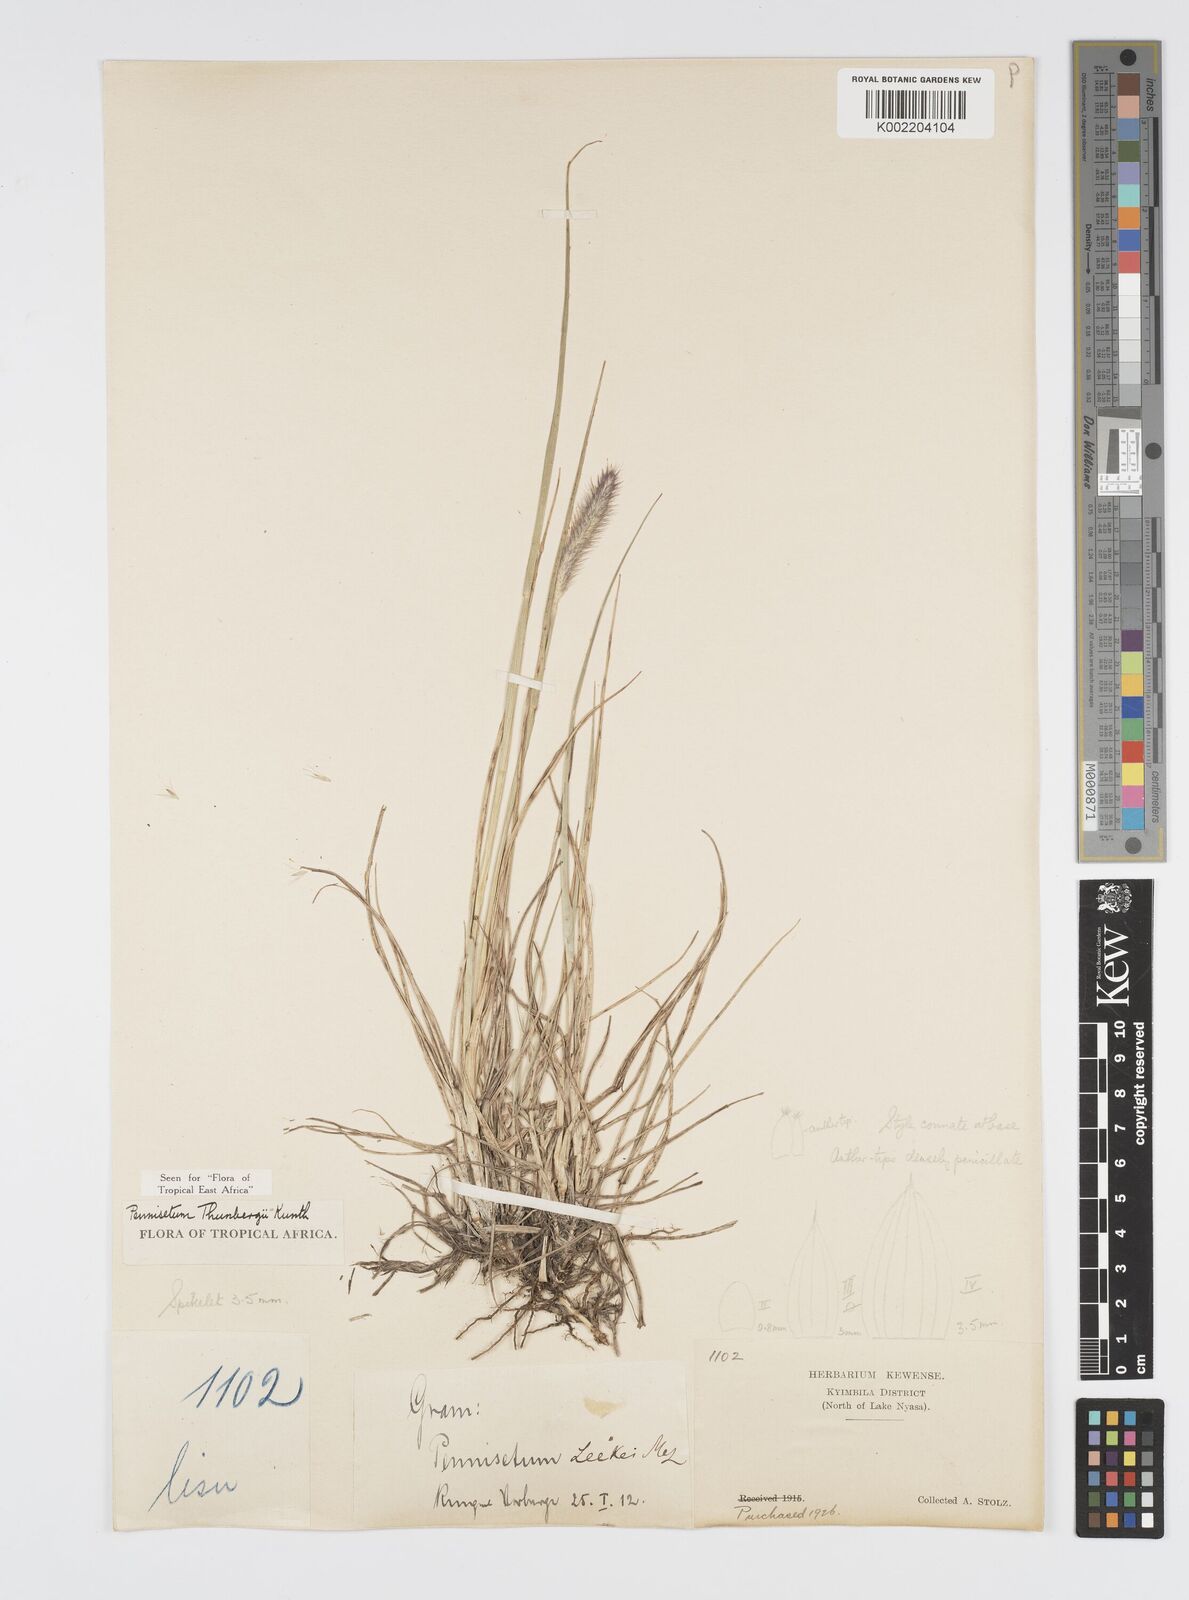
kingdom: Plantae
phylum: Tracheophyta
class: Liliopsida
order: Poales
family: Poaceae
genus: Cenchrus
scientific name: Cenchrus geniculatus
